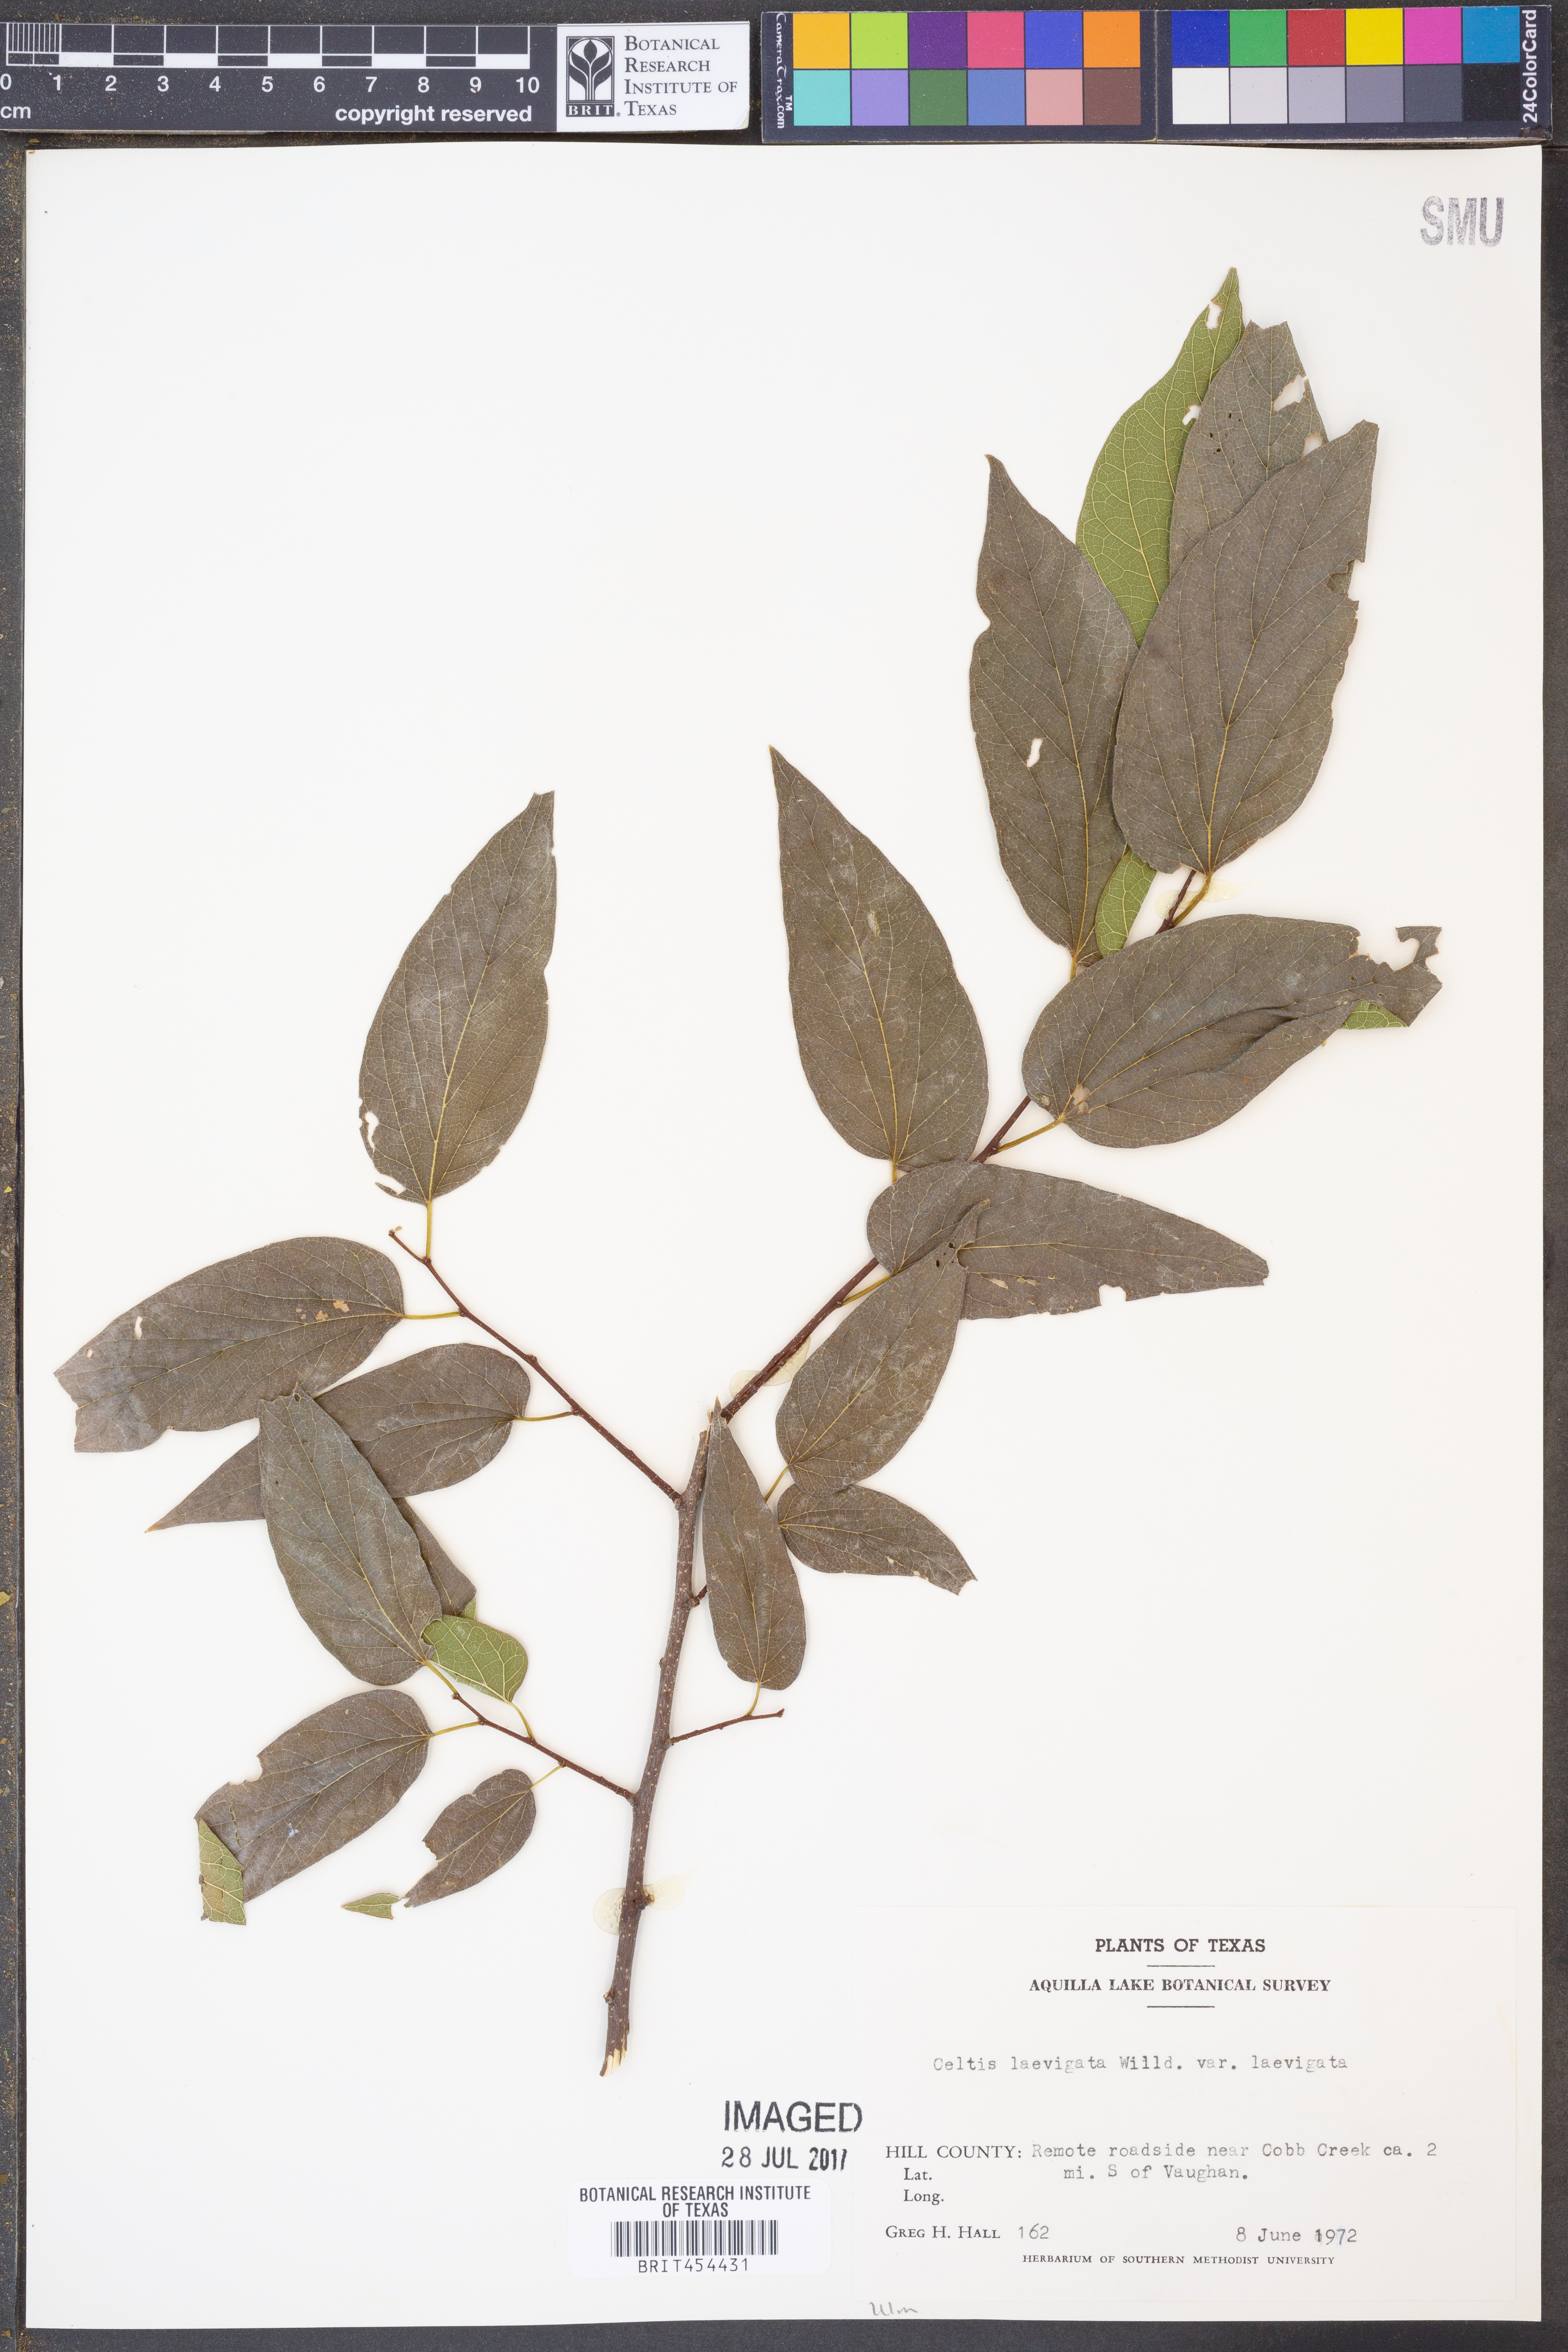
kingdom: Plantae
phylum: Tracheophyta
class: Magnoliopsida
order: Rosales
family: Cannabaceae
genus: Celtis
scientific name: Celtis laevigata
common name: Sugarberry
